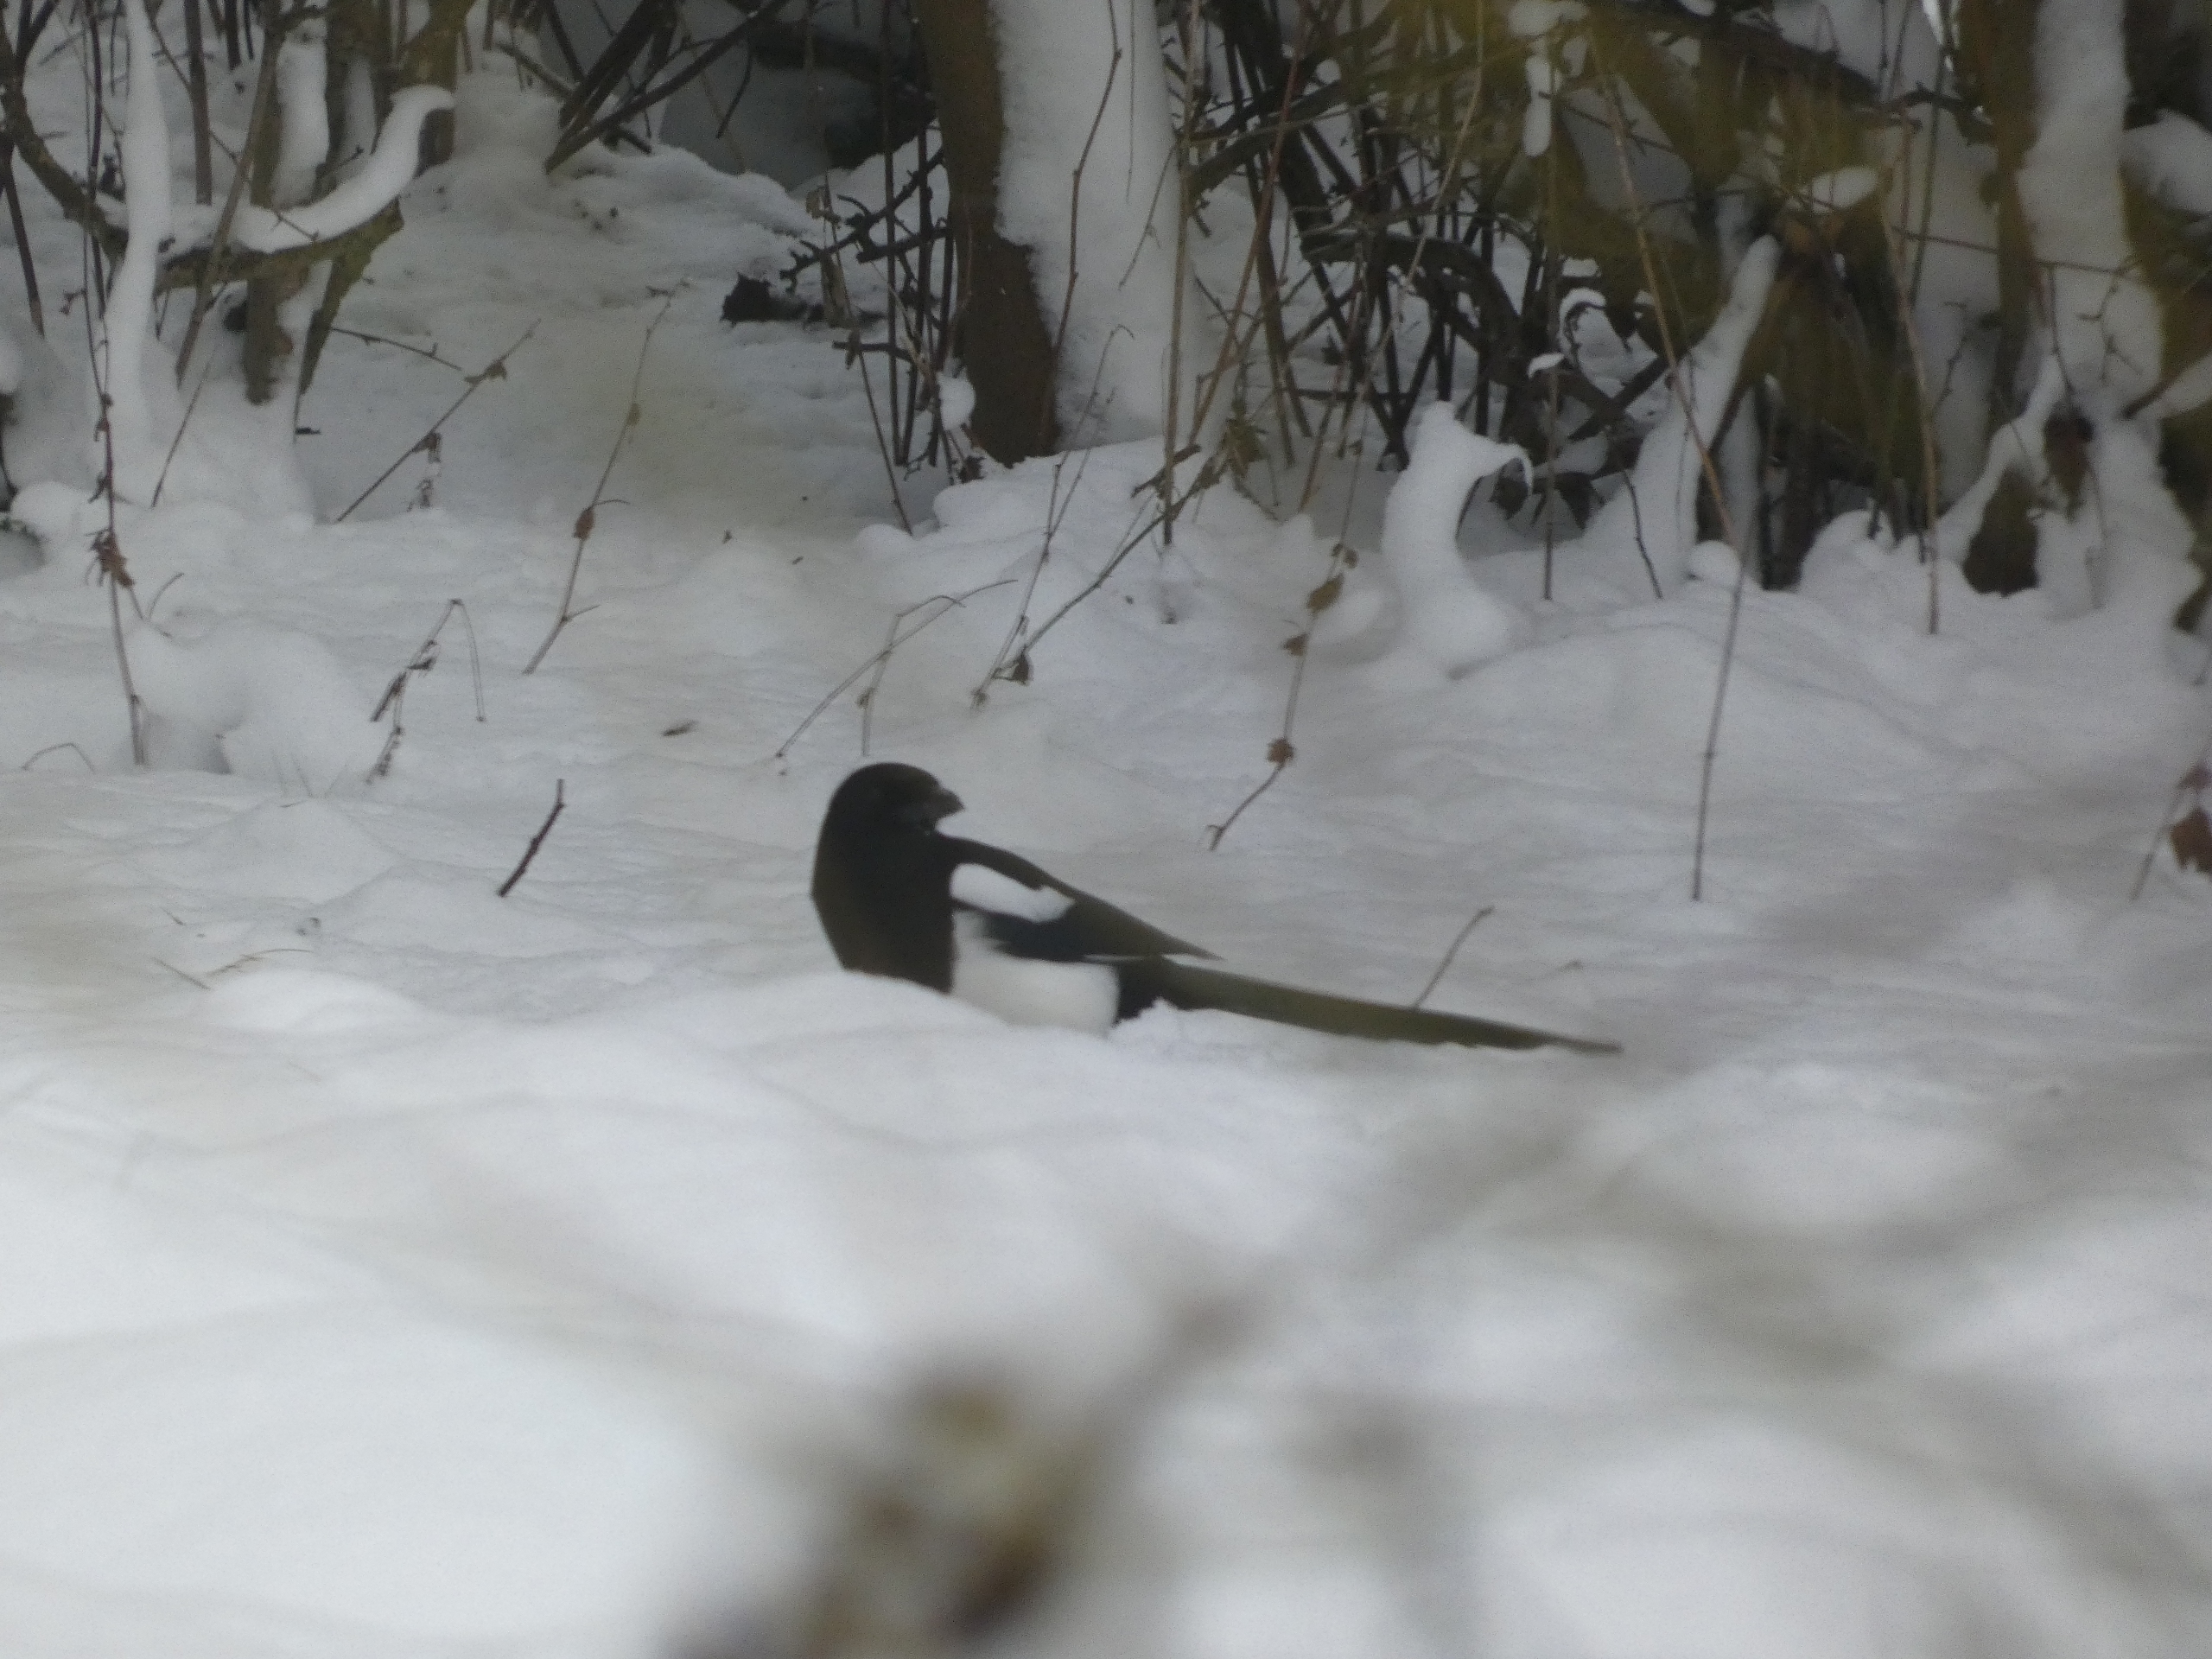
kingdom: Animalia
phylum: Chordata
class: Aves
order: Passeriformes
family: Corvidae
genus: Pica
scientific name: Pica pica
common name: Husskade
